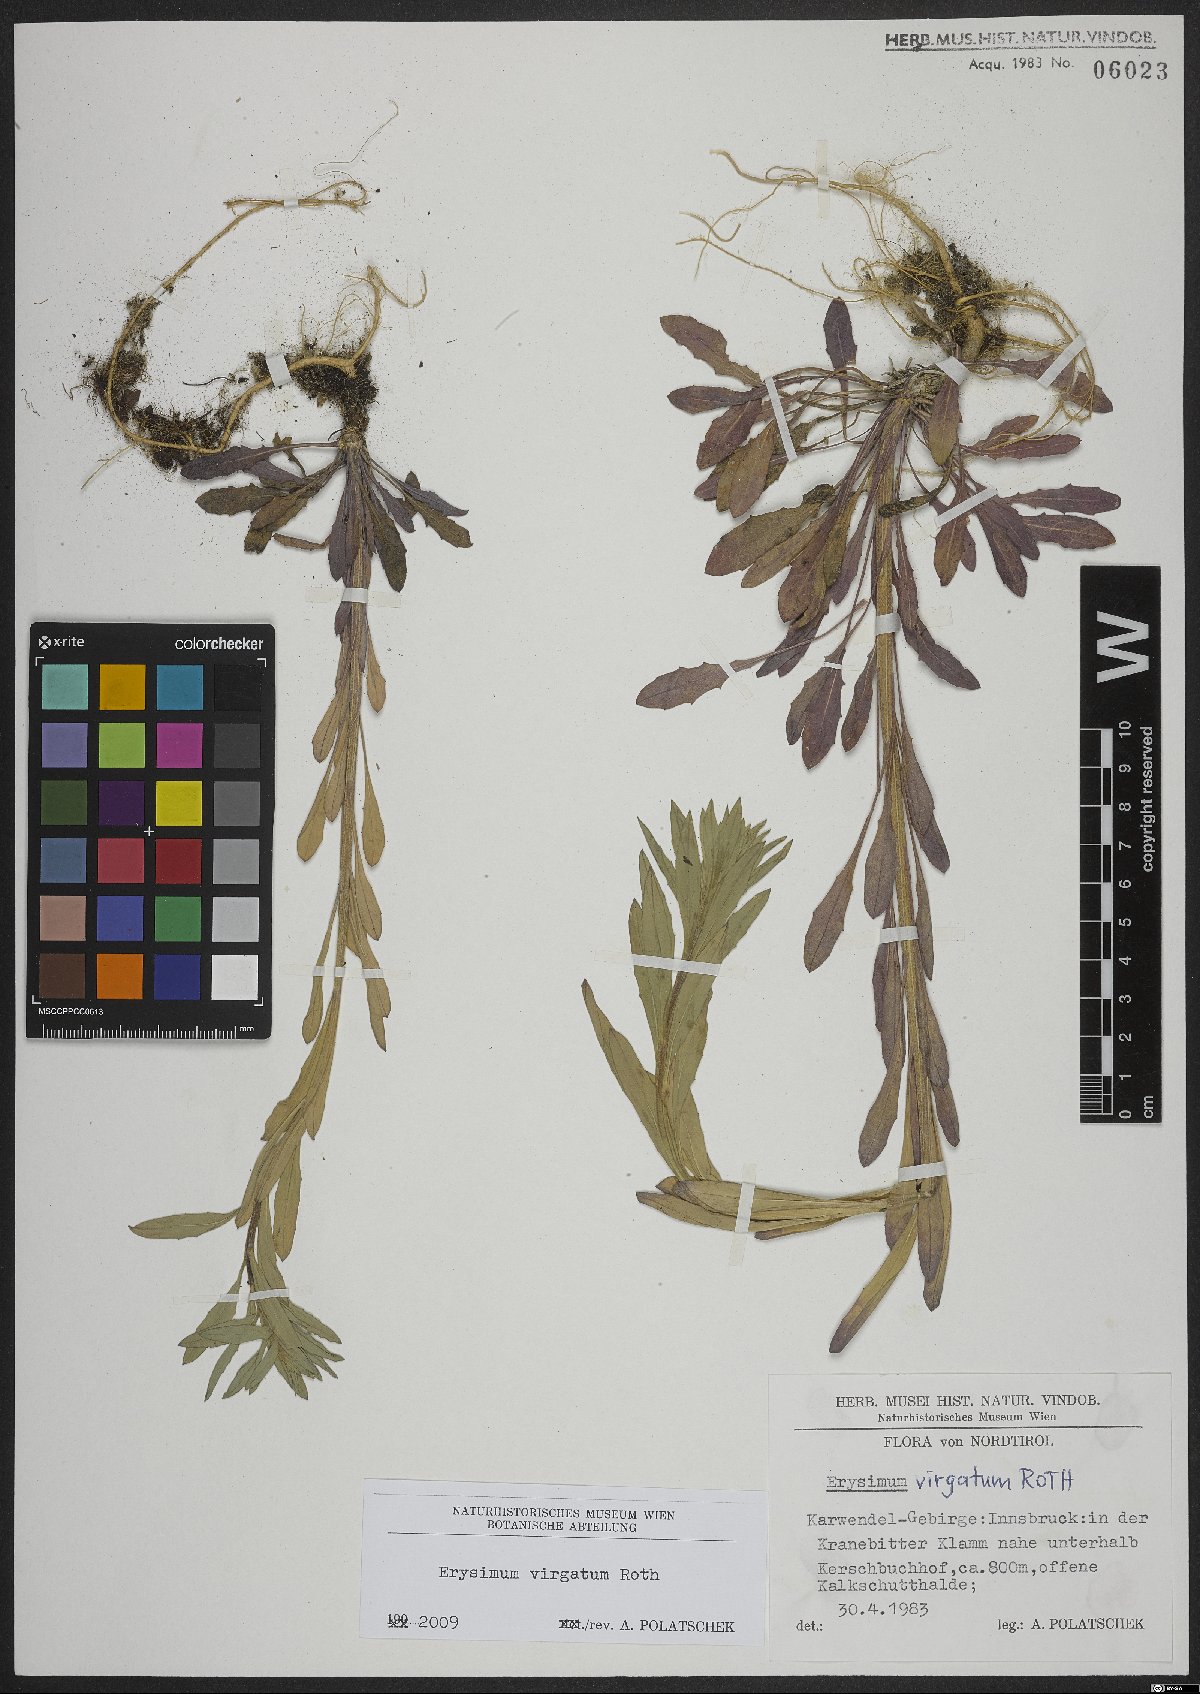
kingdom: Plantae
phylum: Tracheophyta
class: Magnoliopsida
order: Brassicales
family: Brassicaceae
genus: Erysimum
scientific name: Erysimum virgatum
